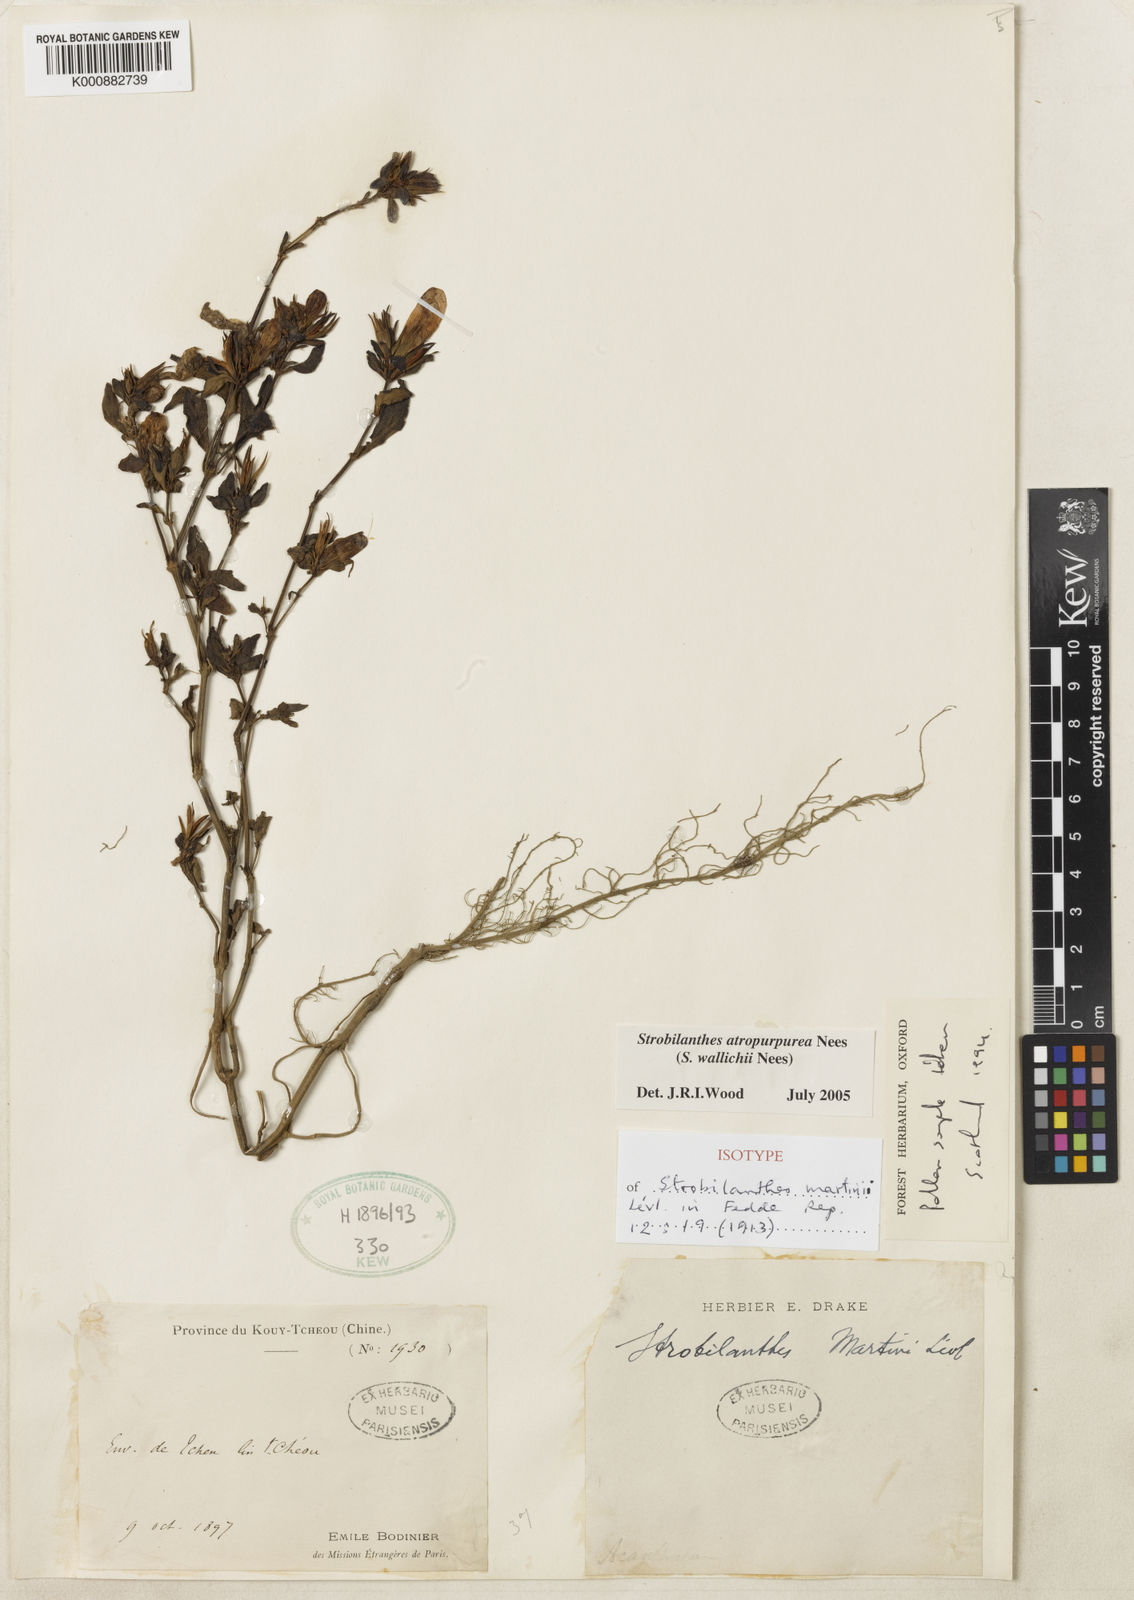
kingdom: Plantae
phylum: Tracheophyta
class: Magnoliopsida
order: Lamiales
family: Acanthaceae
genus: Strobilanthes
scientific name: Strobilanthes atropurpurea
